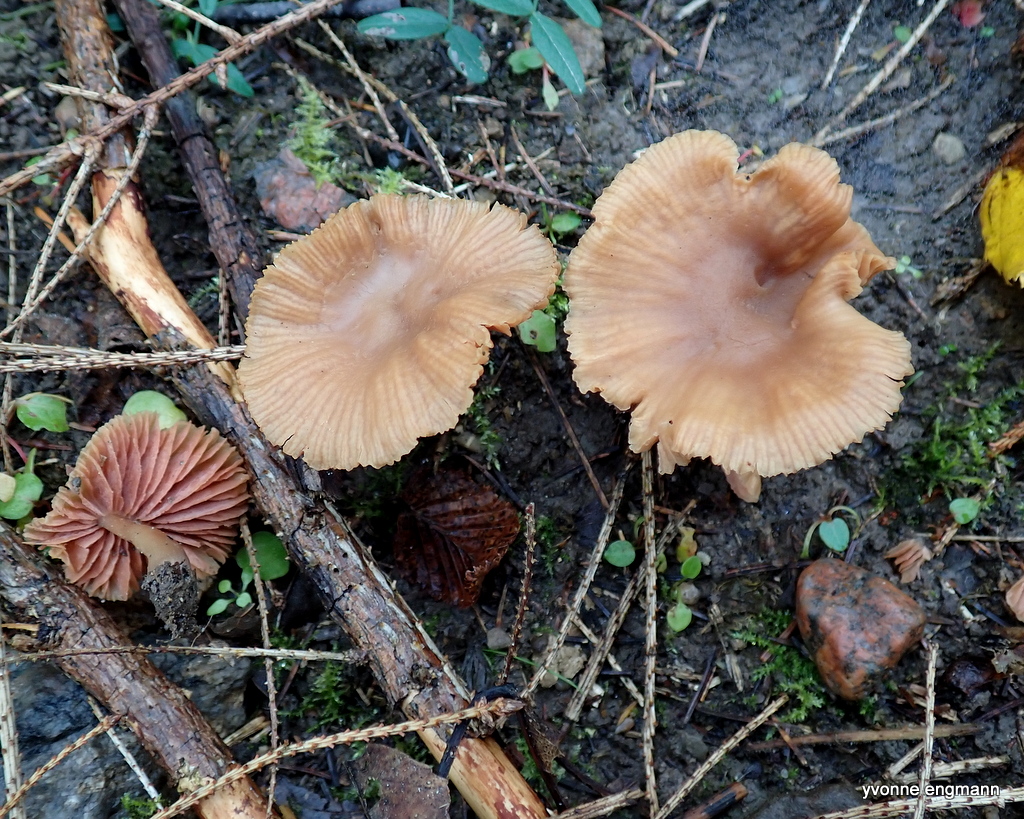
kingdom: Fungi
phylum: Basidiomycota
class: Agaricomycetes
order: Agaricales
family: Hydnangiaceae
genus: Laccaria
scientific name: Laccaria laccata
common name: rød ametysthat
